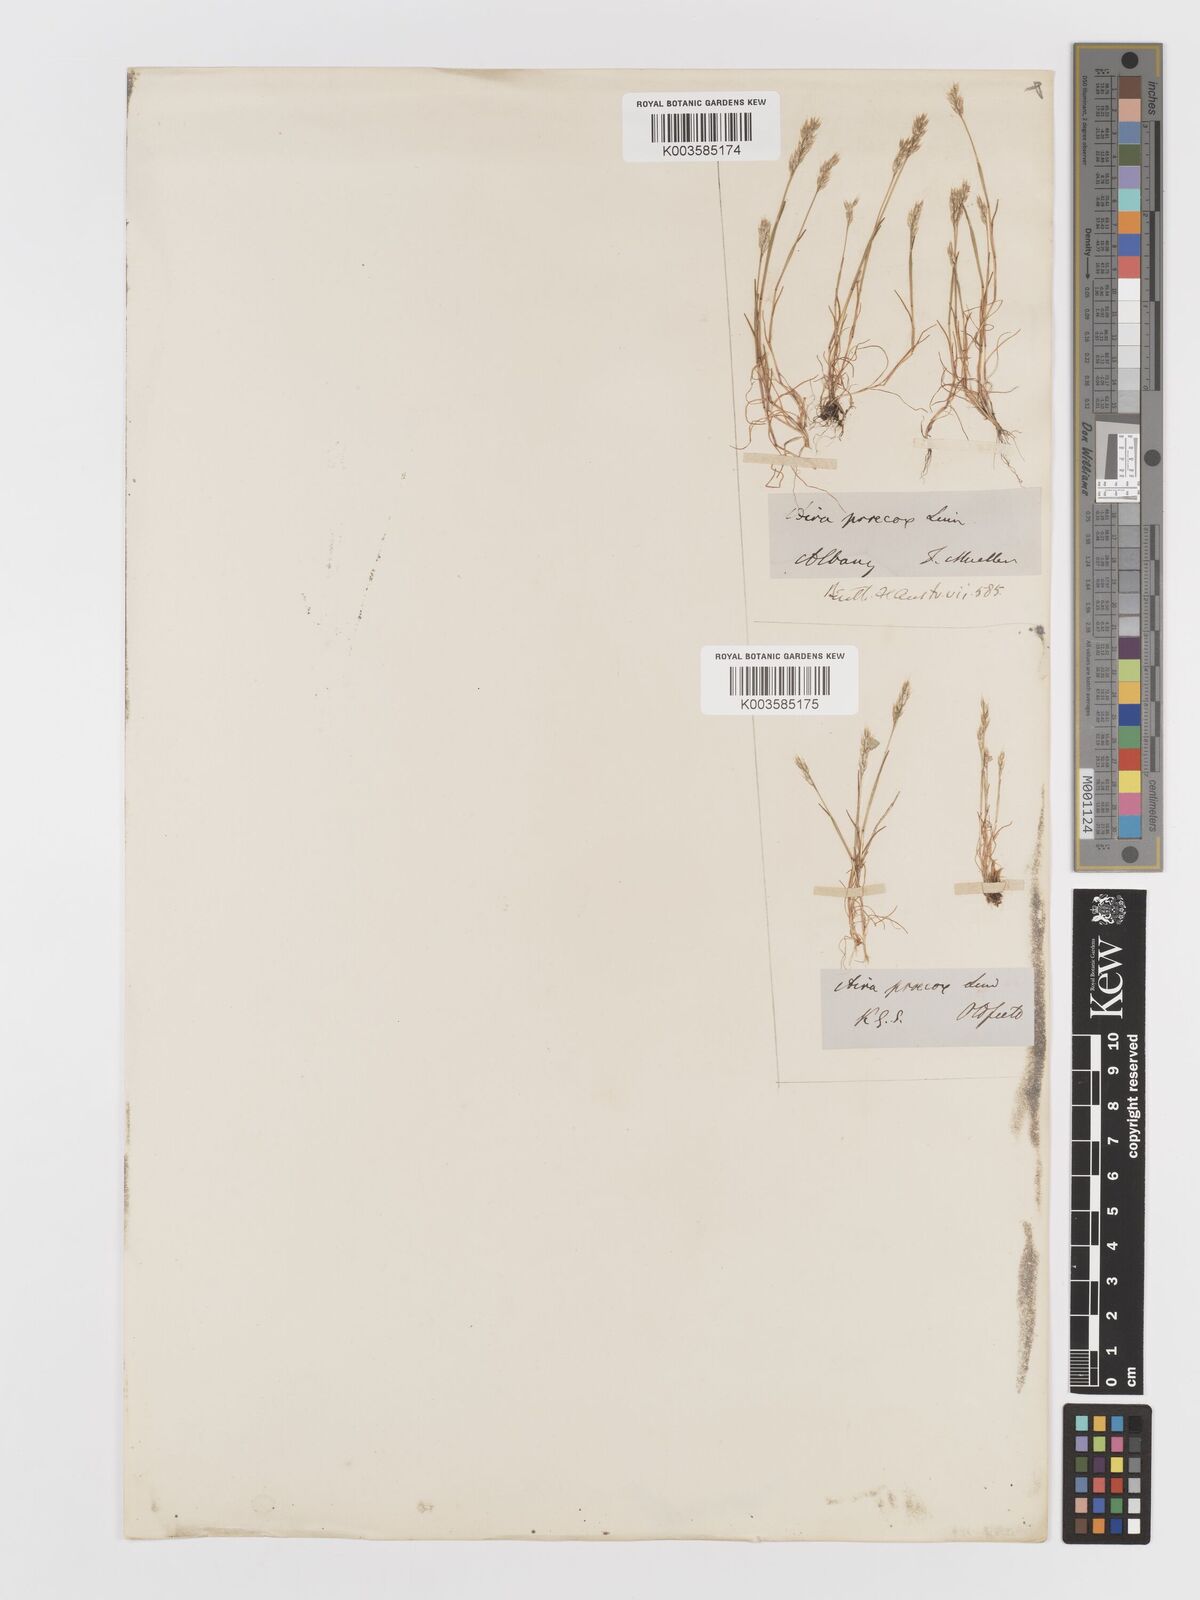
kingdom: Plantae
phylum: Tracheophyta
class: Liliopsida
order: Poales
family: Poaceae
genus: Aira
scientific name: Aira praecox
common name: Early hair-grass
